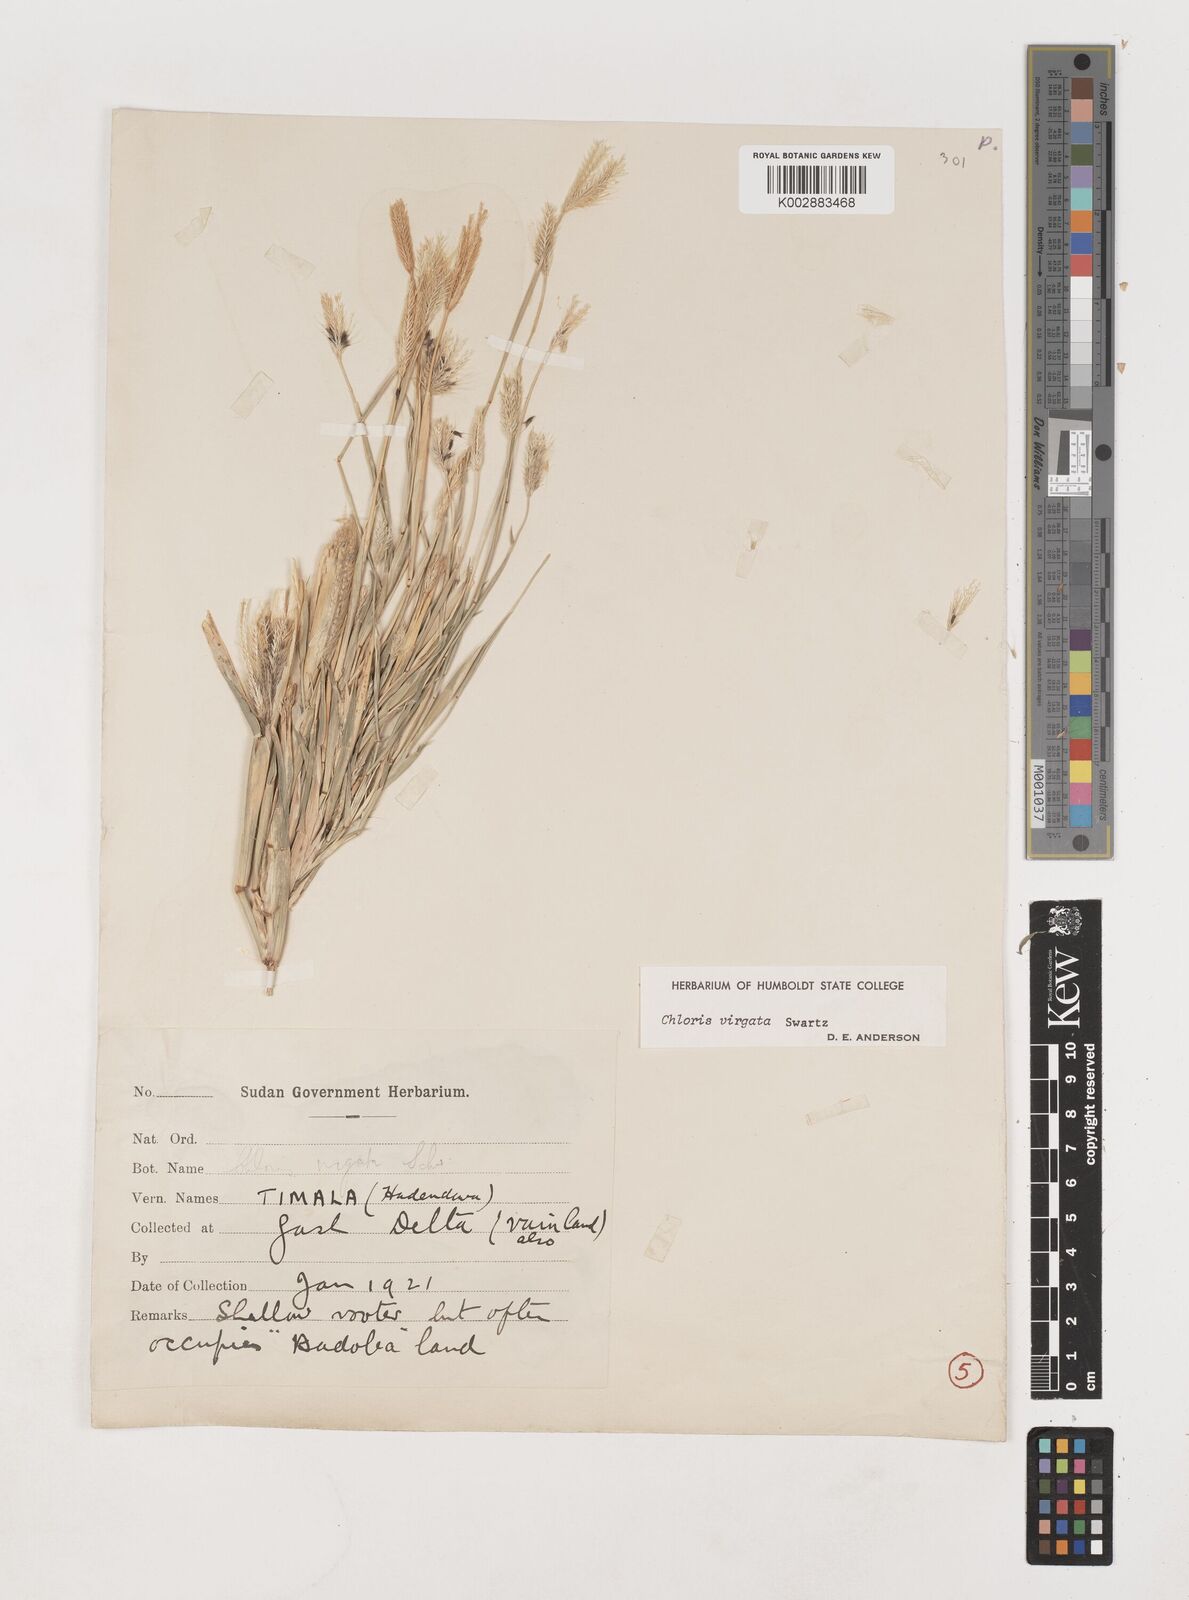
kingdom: Plantae
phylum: Tracheophyta
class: Liliopsida
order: Poales
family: Poaceae
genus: Chloris
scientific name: Chloris virgata
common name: Feathery rhodes-grass
